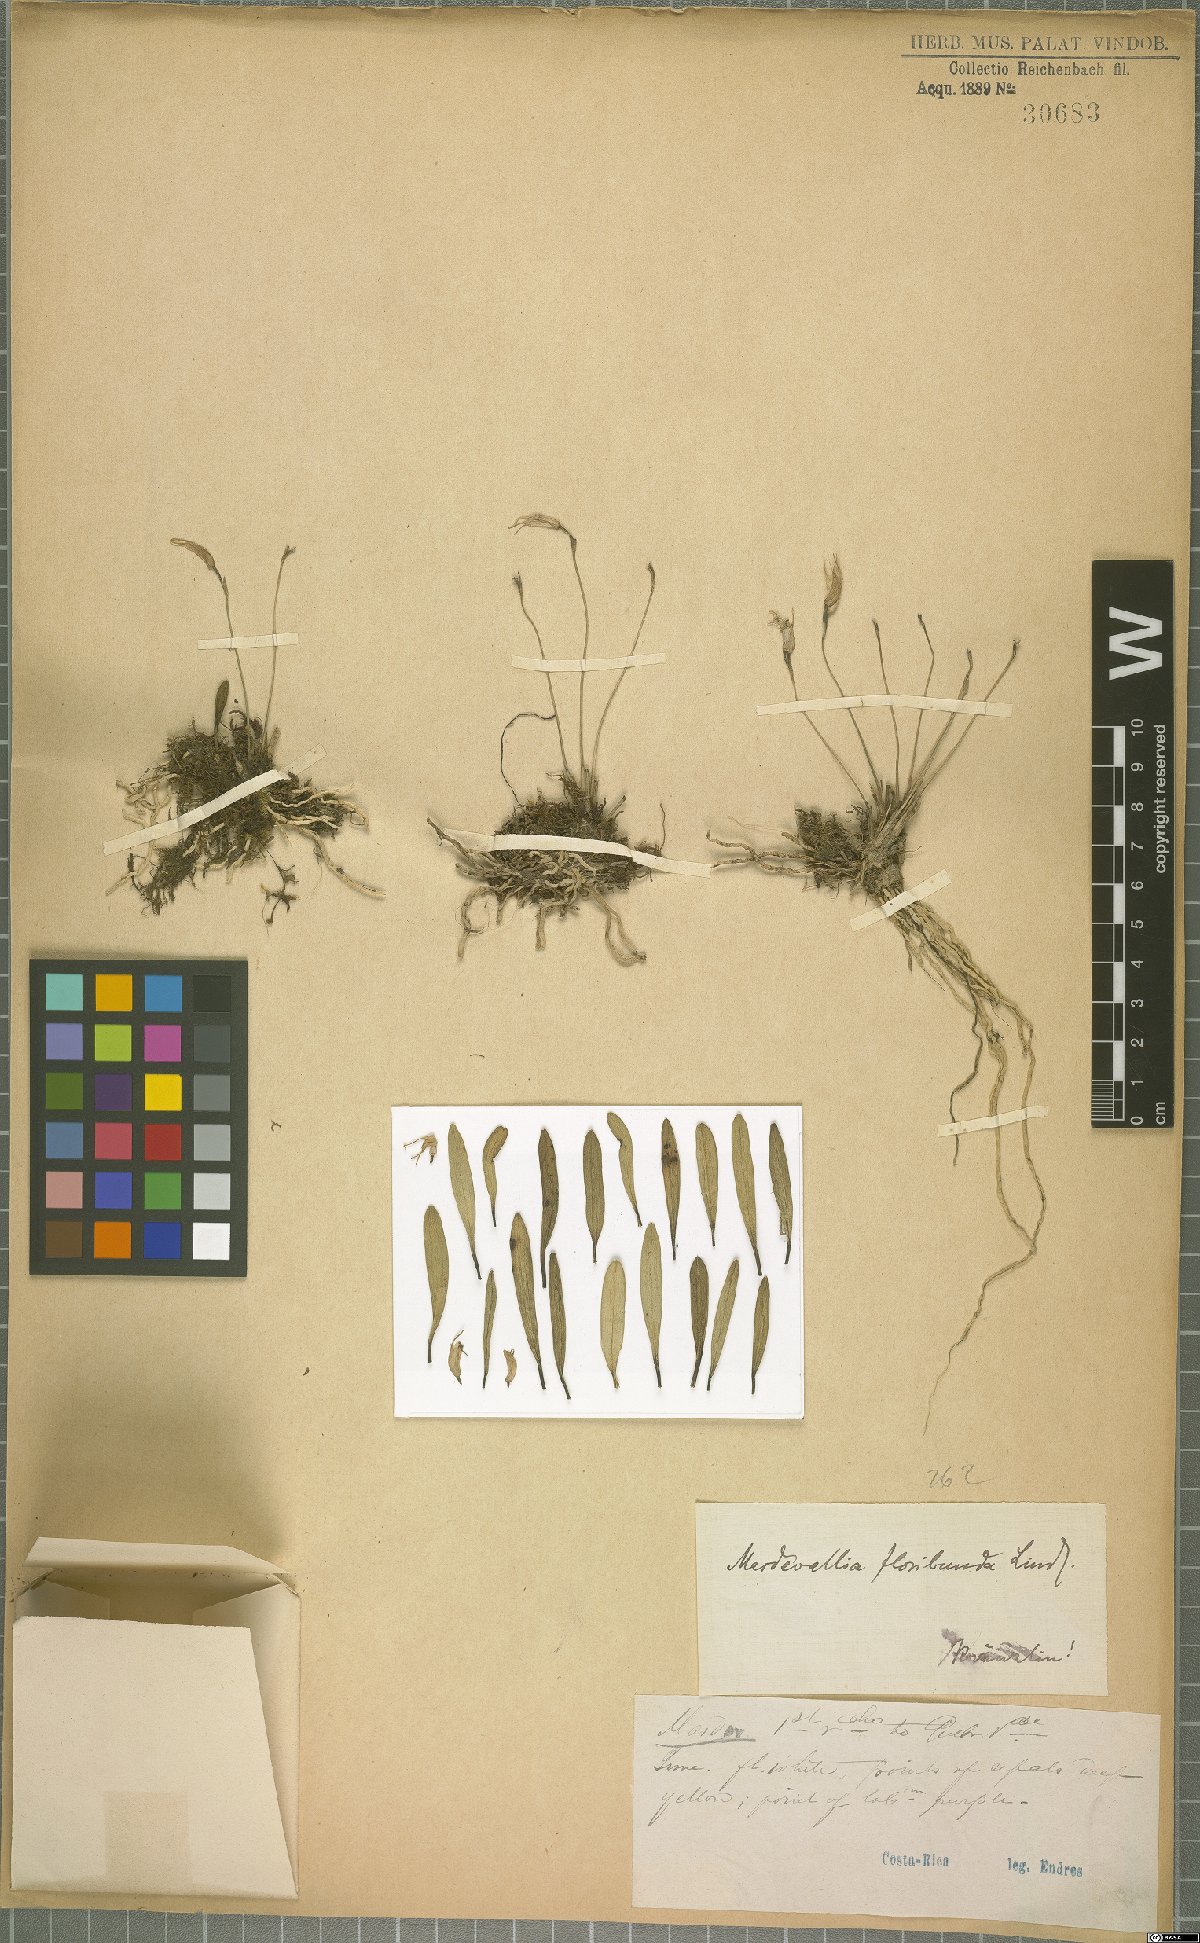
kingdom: Plantae
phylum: Tracheophyta
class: Liliopsida
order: Asparagales
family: Orchidaceae
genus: Masdevallia
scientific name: Masdevallia floribunda
